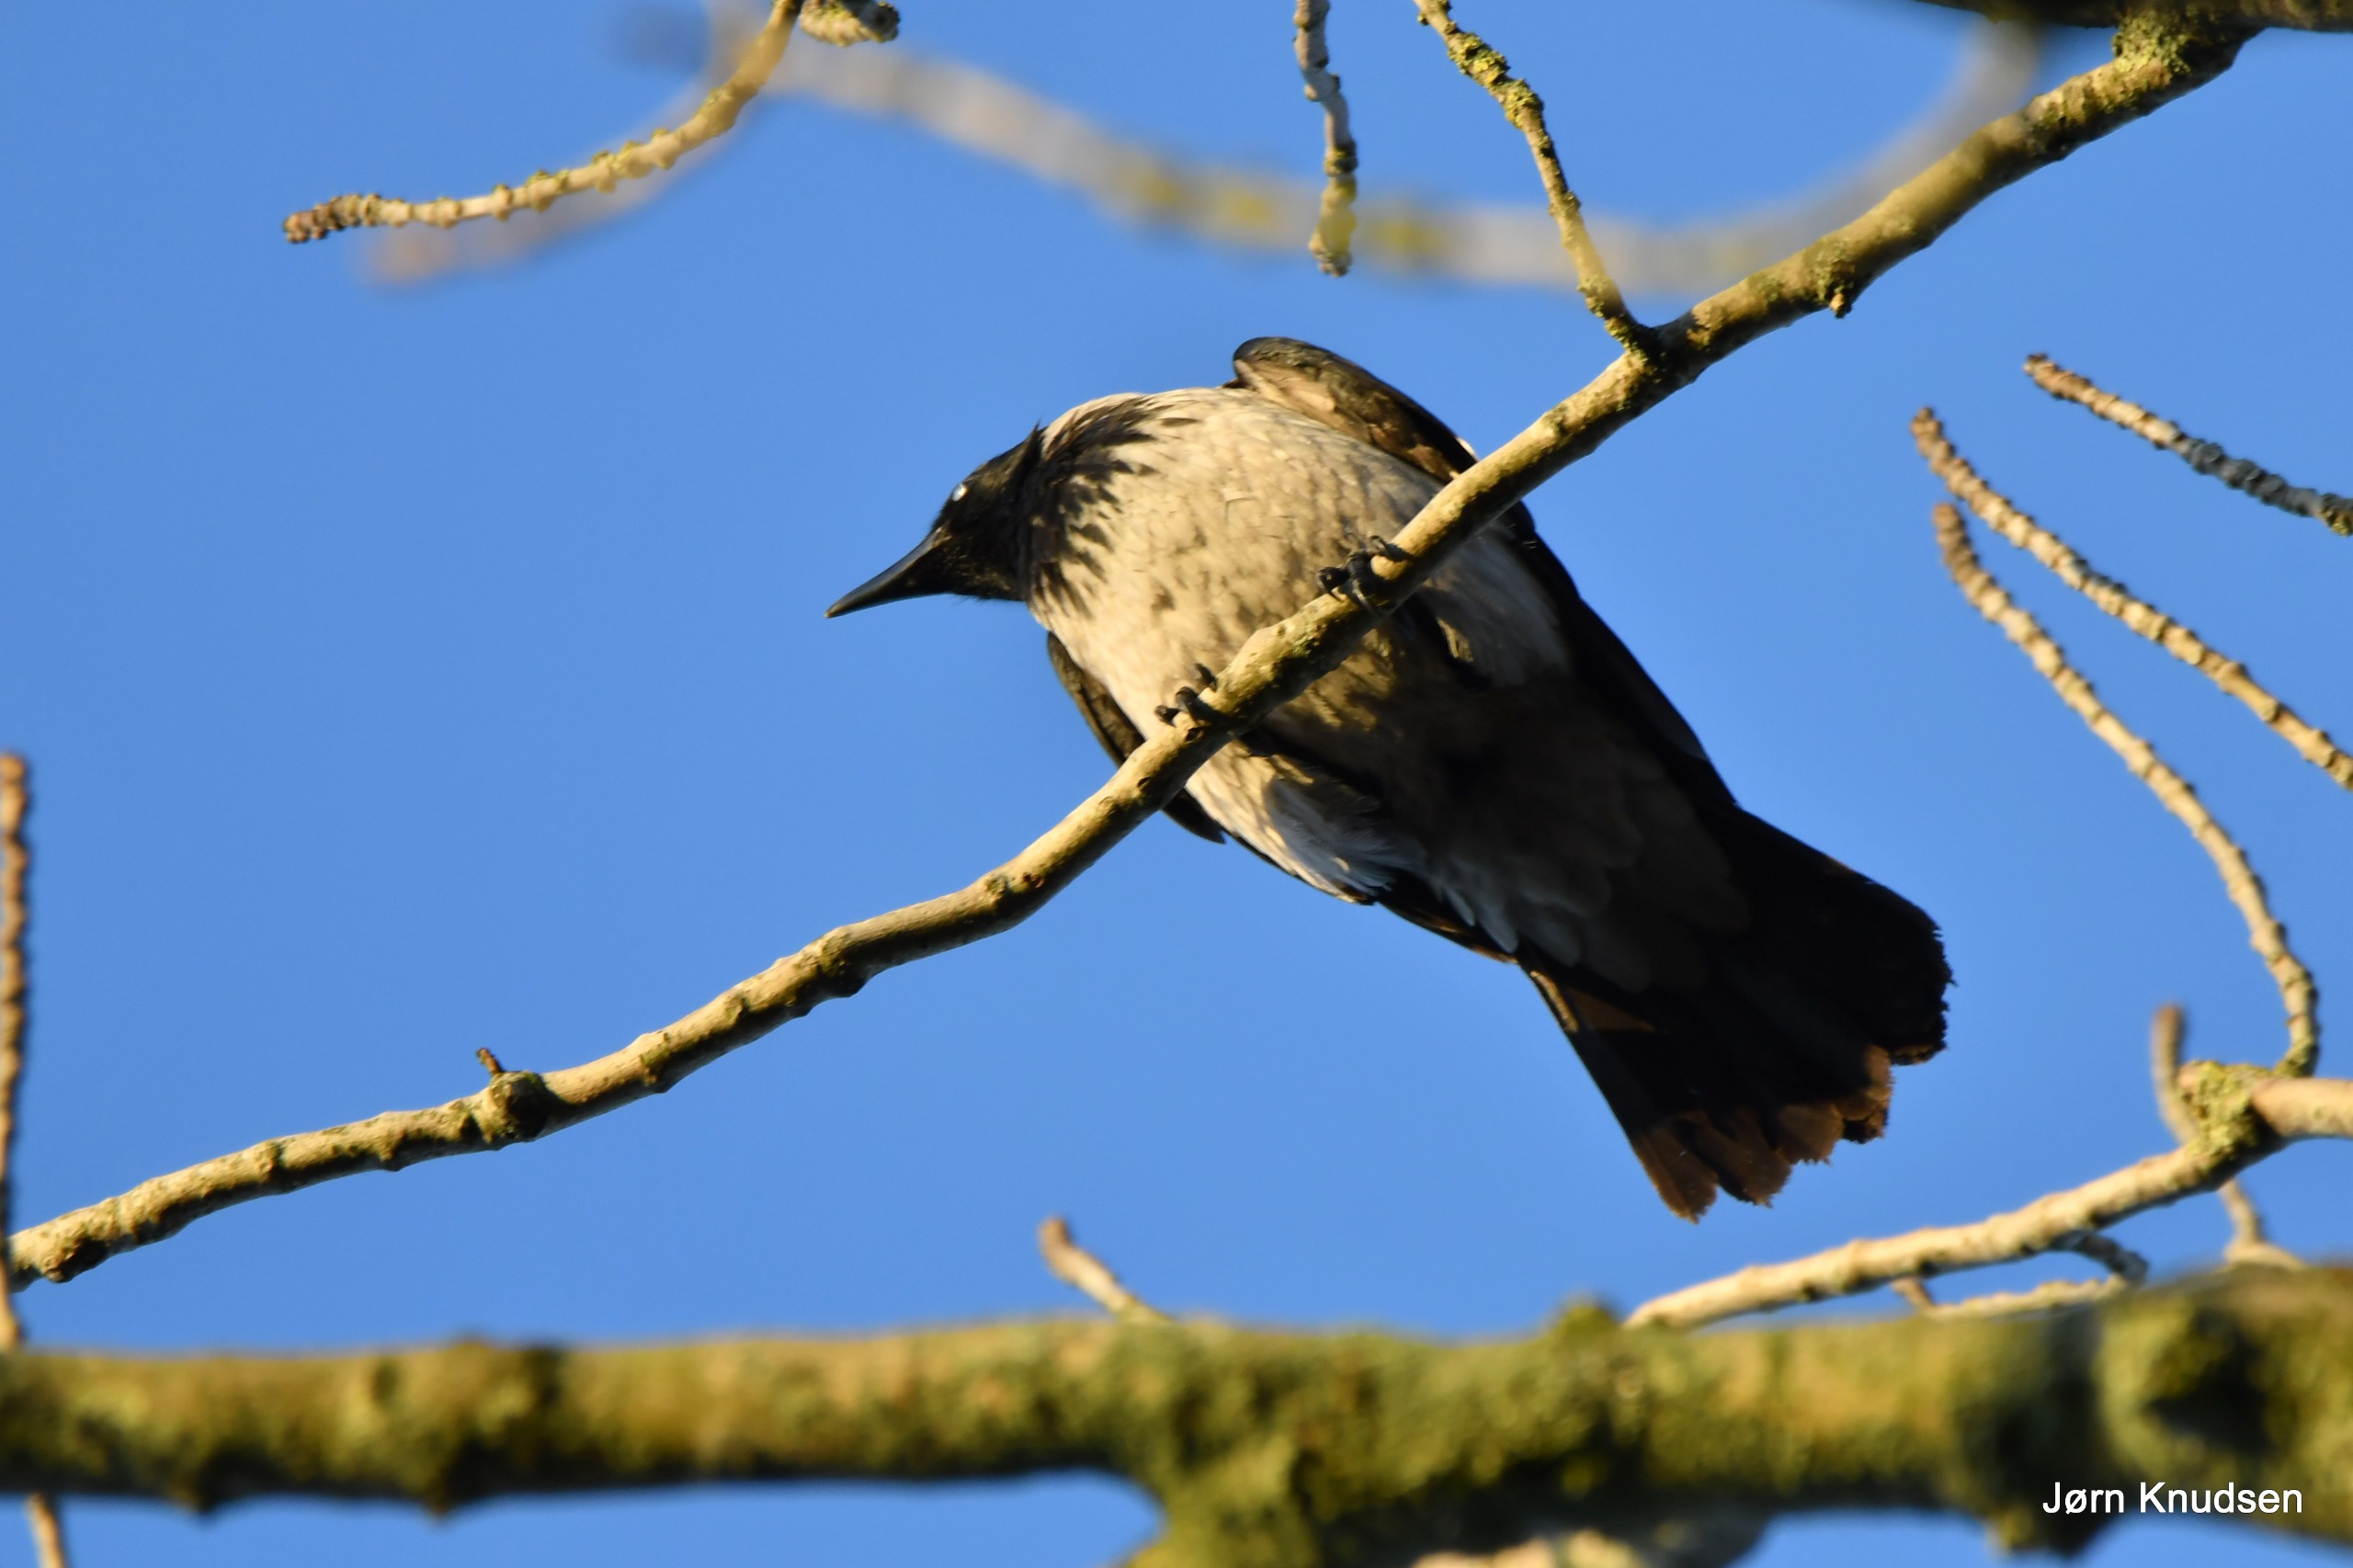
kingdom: Animalia
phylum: Chordata
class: Aves
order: Passeriformes
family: Corvidae
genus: Corvus
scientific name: Corvus cornix
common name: Gråkrage
